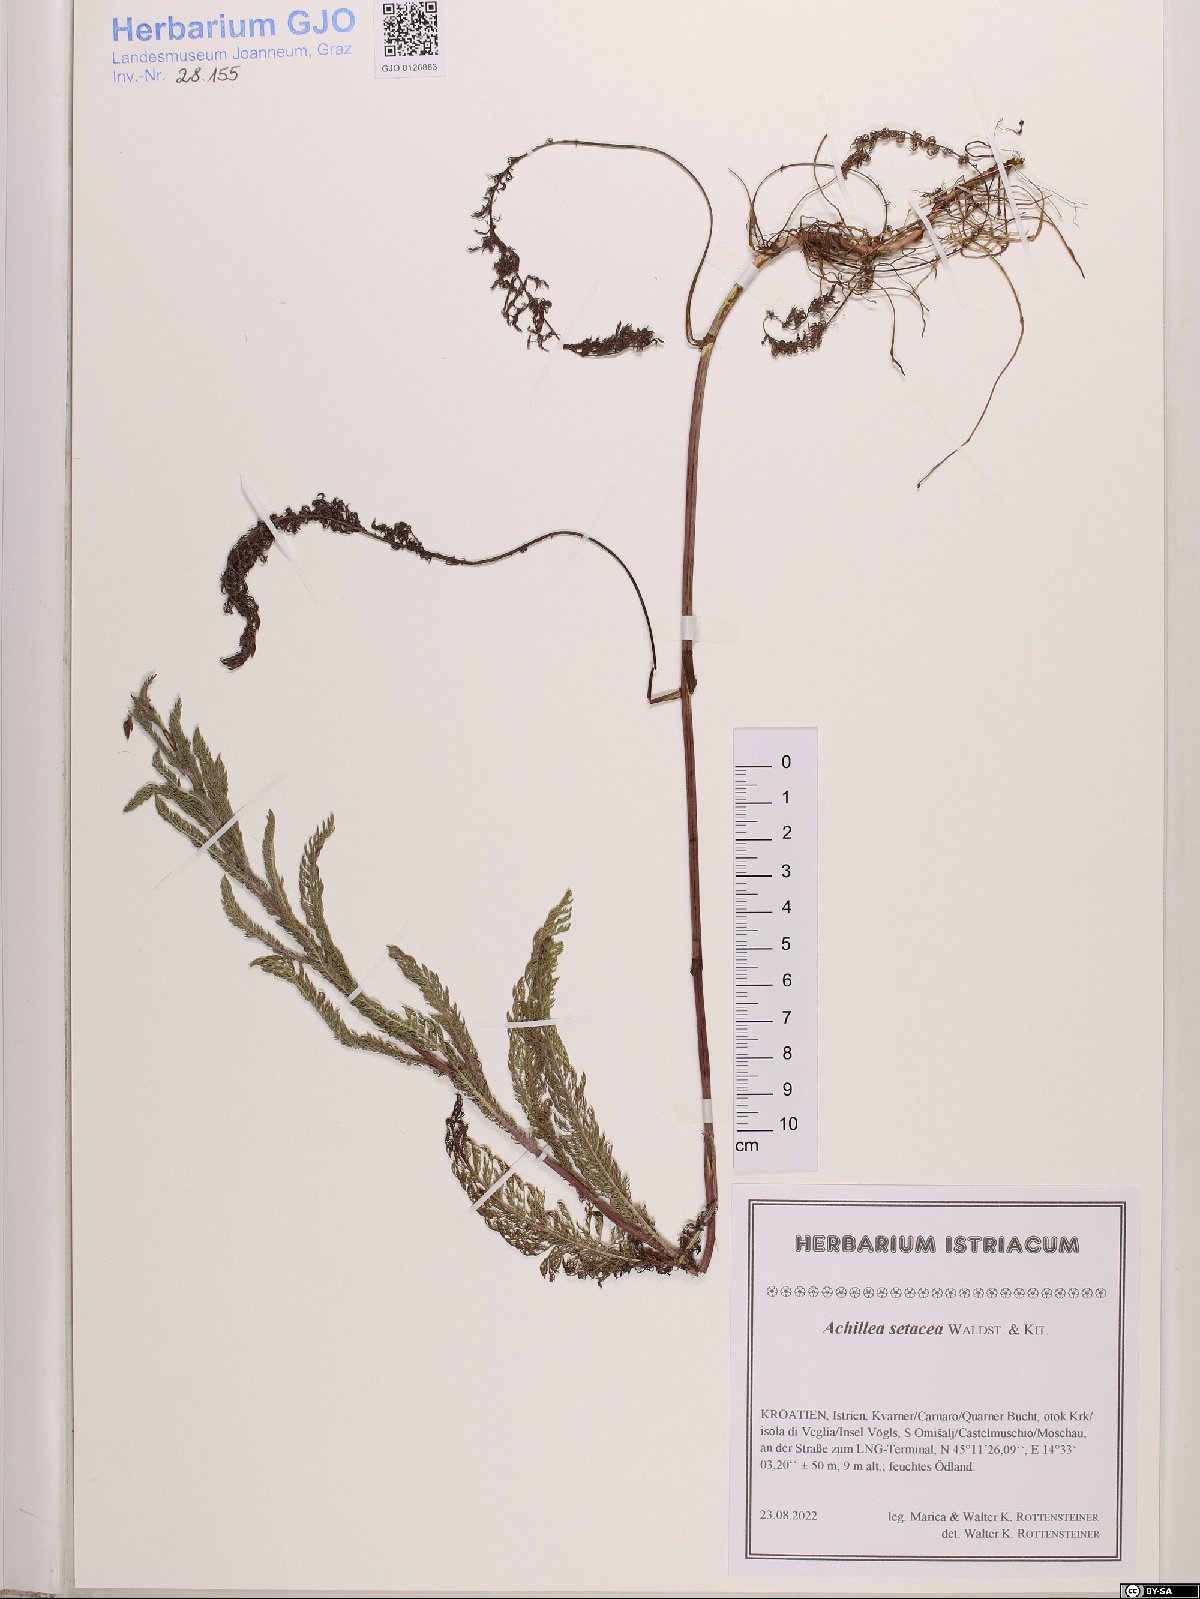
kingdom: Plantae
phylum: Tracheophyta
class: Magnoliopsida
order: Asterales
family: Asteraceae
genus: Achillea
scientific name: Achillea setacea
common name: Bristly yarrow
